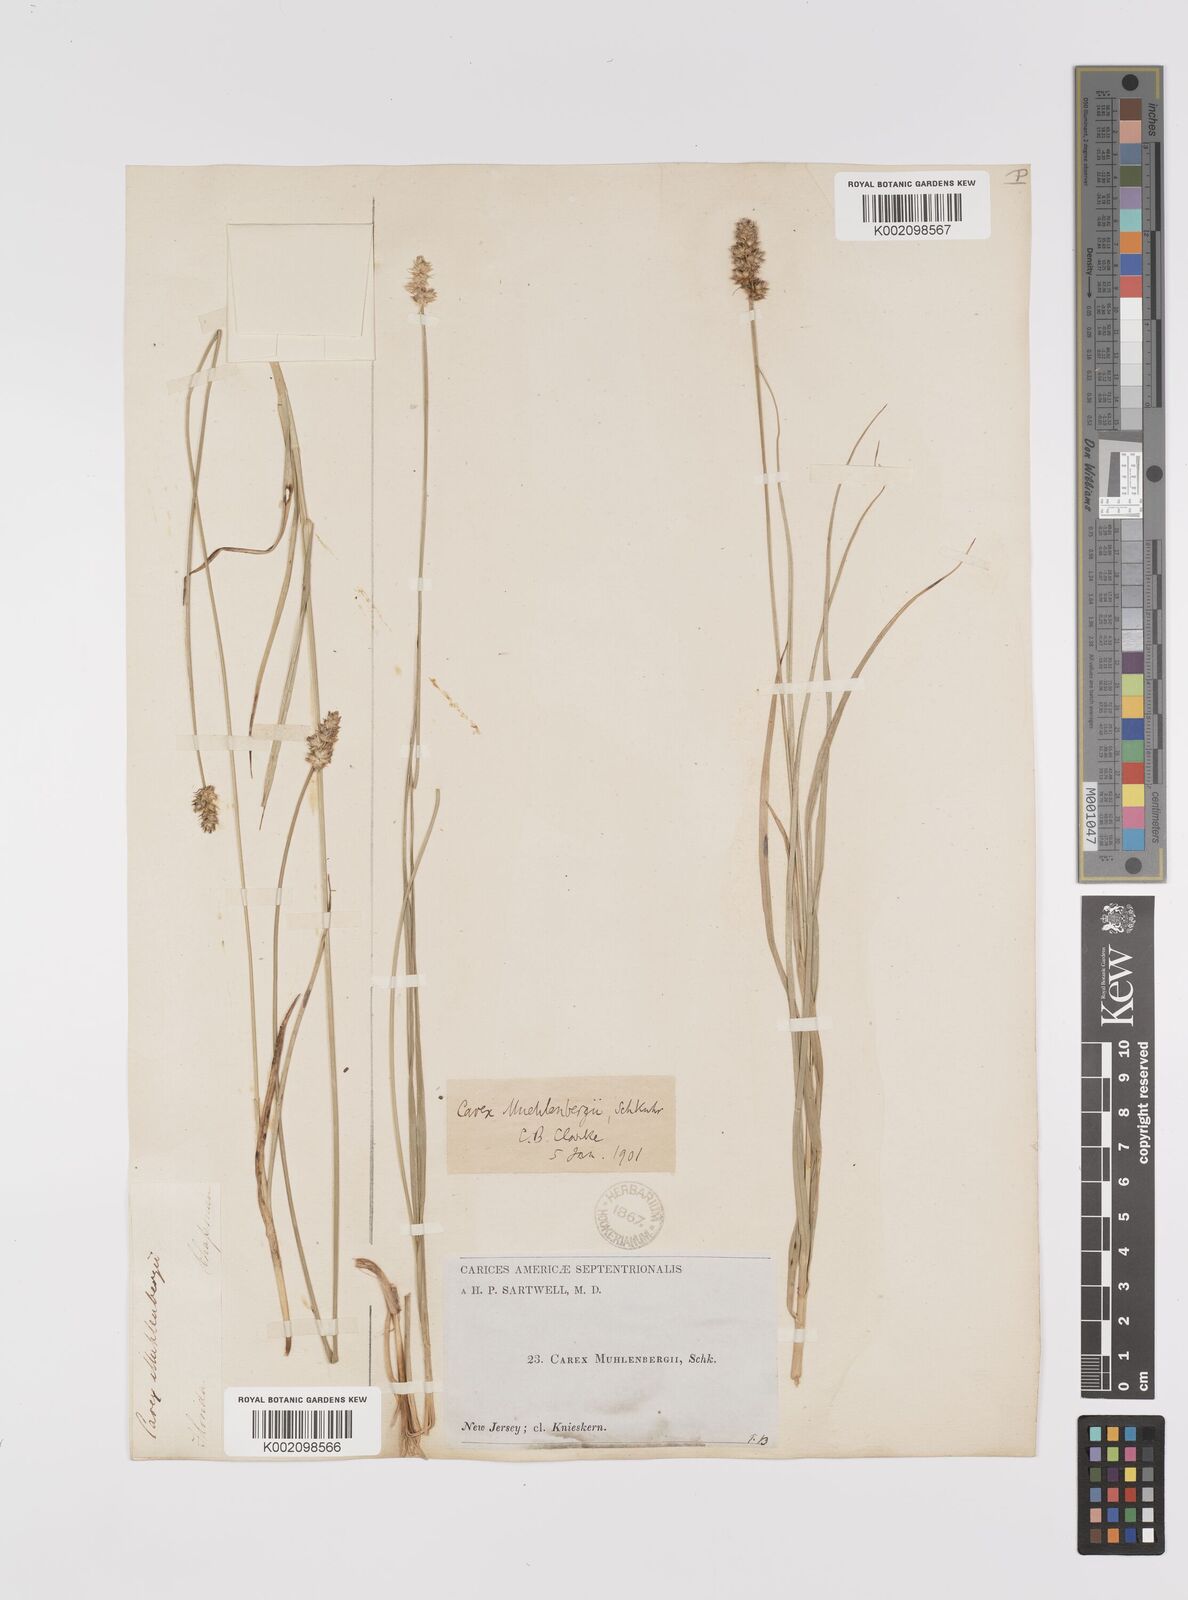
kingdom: Plantae
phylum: Tracheophyta
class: Liliopsida
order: Poales
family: Cyperaceae
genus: Carex
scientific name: Carex vulpinoidea
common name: American fox-sedge
